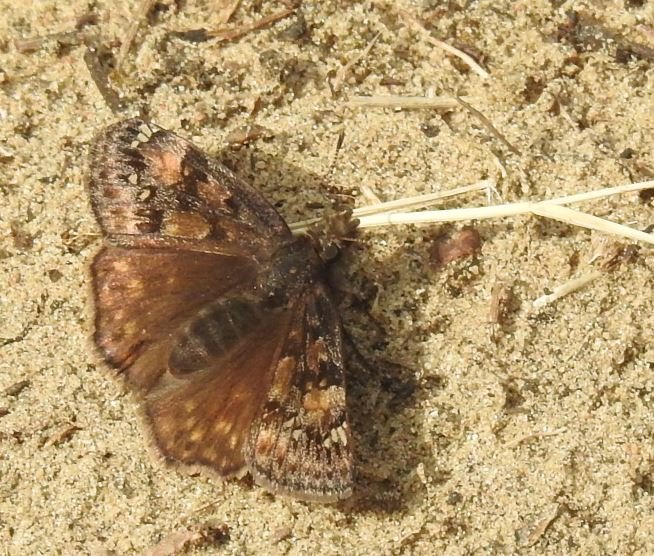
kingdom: Animalia
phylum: Arthropoda
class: Insecta
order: Lepidoptera
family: Hesperiidae
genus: Gesta
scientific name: Gesta
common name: Juvenal's Duskywing
